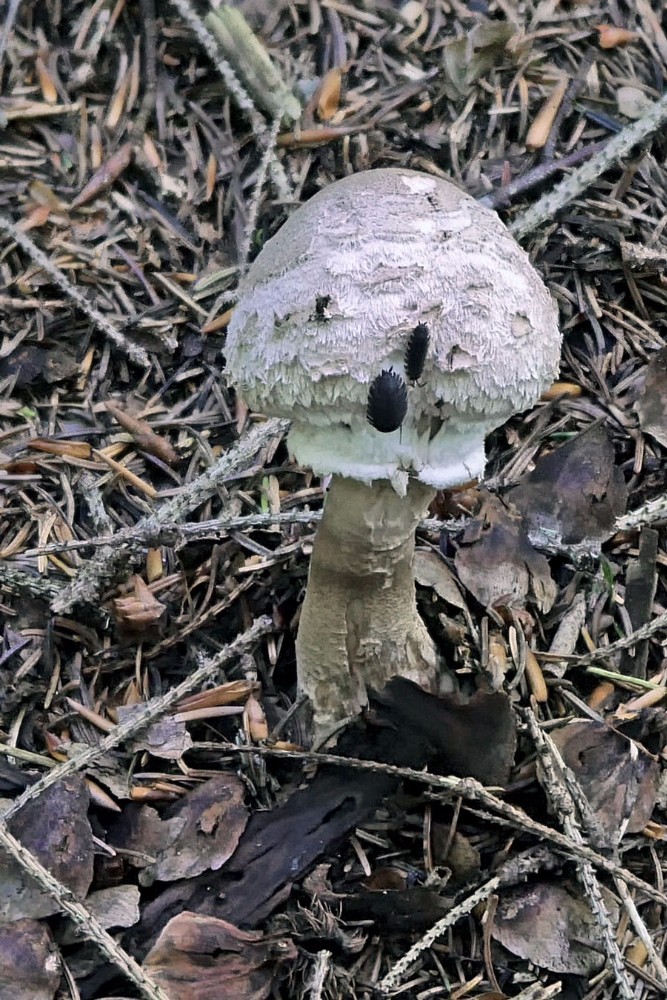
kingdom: Fungi
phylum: Basidiomycota
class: Agaricomycetes
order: Agaricales
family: Agaricaceae
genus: Chlorophyllum
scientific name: Chlorophyllum olivieri
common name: almindelig rabarberhat
